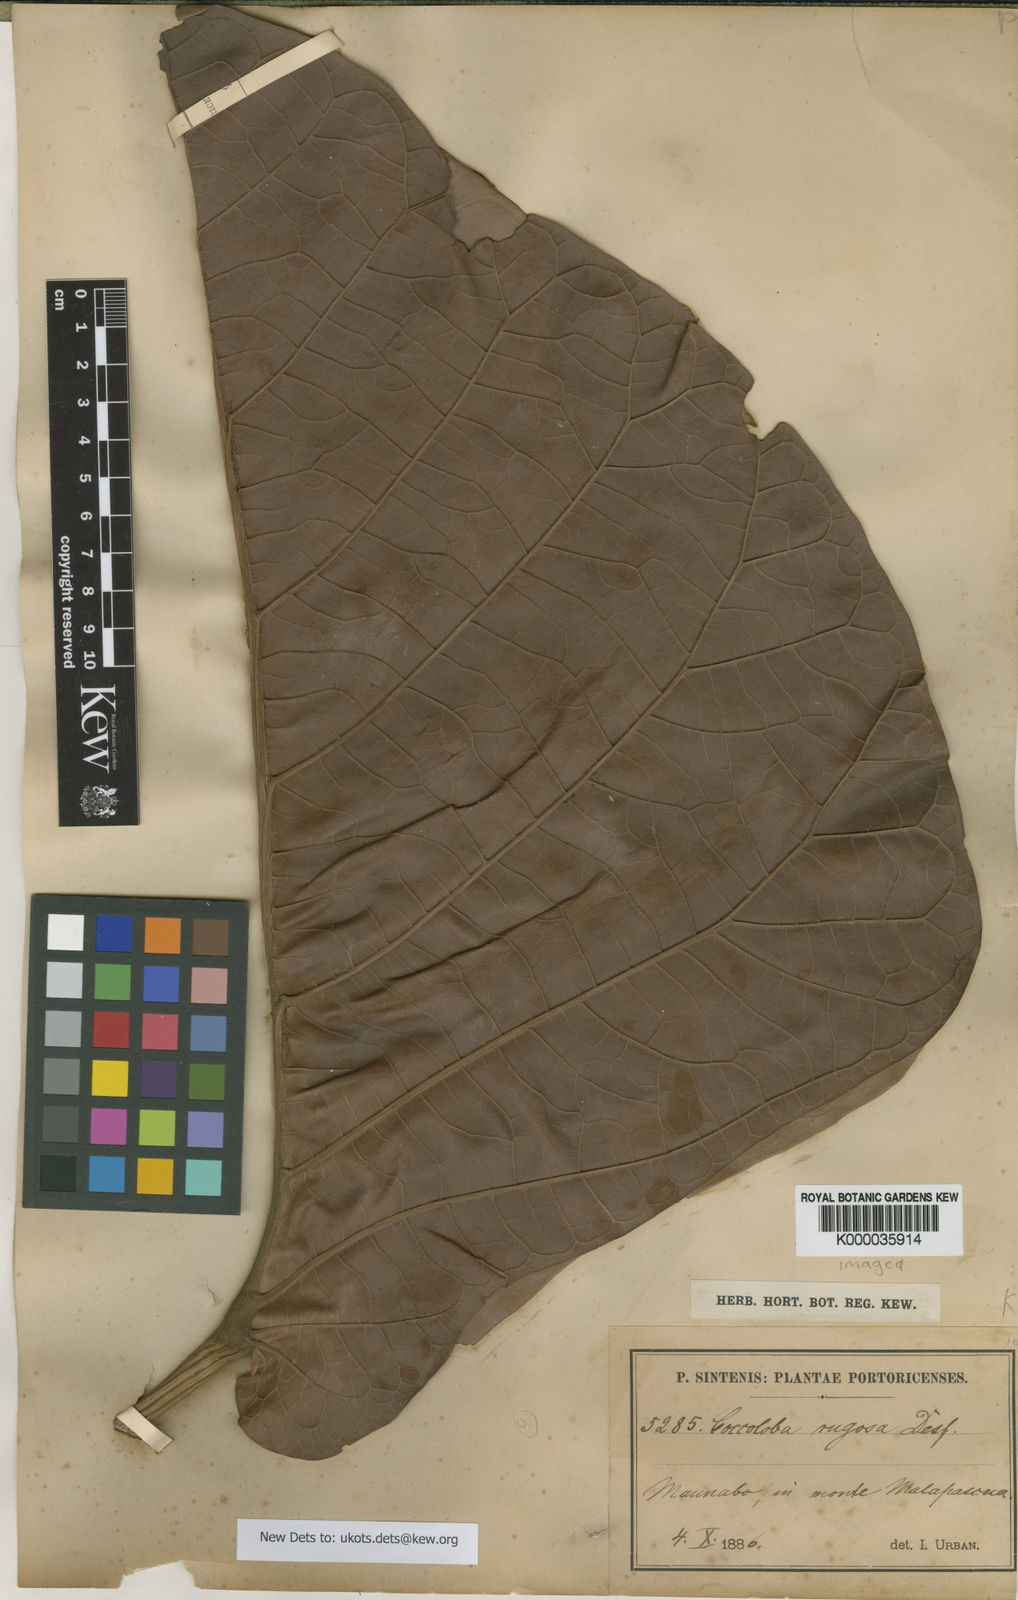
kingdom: Plantae
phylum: Tracheophyta
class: Magnoliopsida
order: Caryophyllales
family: Polygonaceae
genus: Coccoloba
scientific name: Coccoloba rugosa
